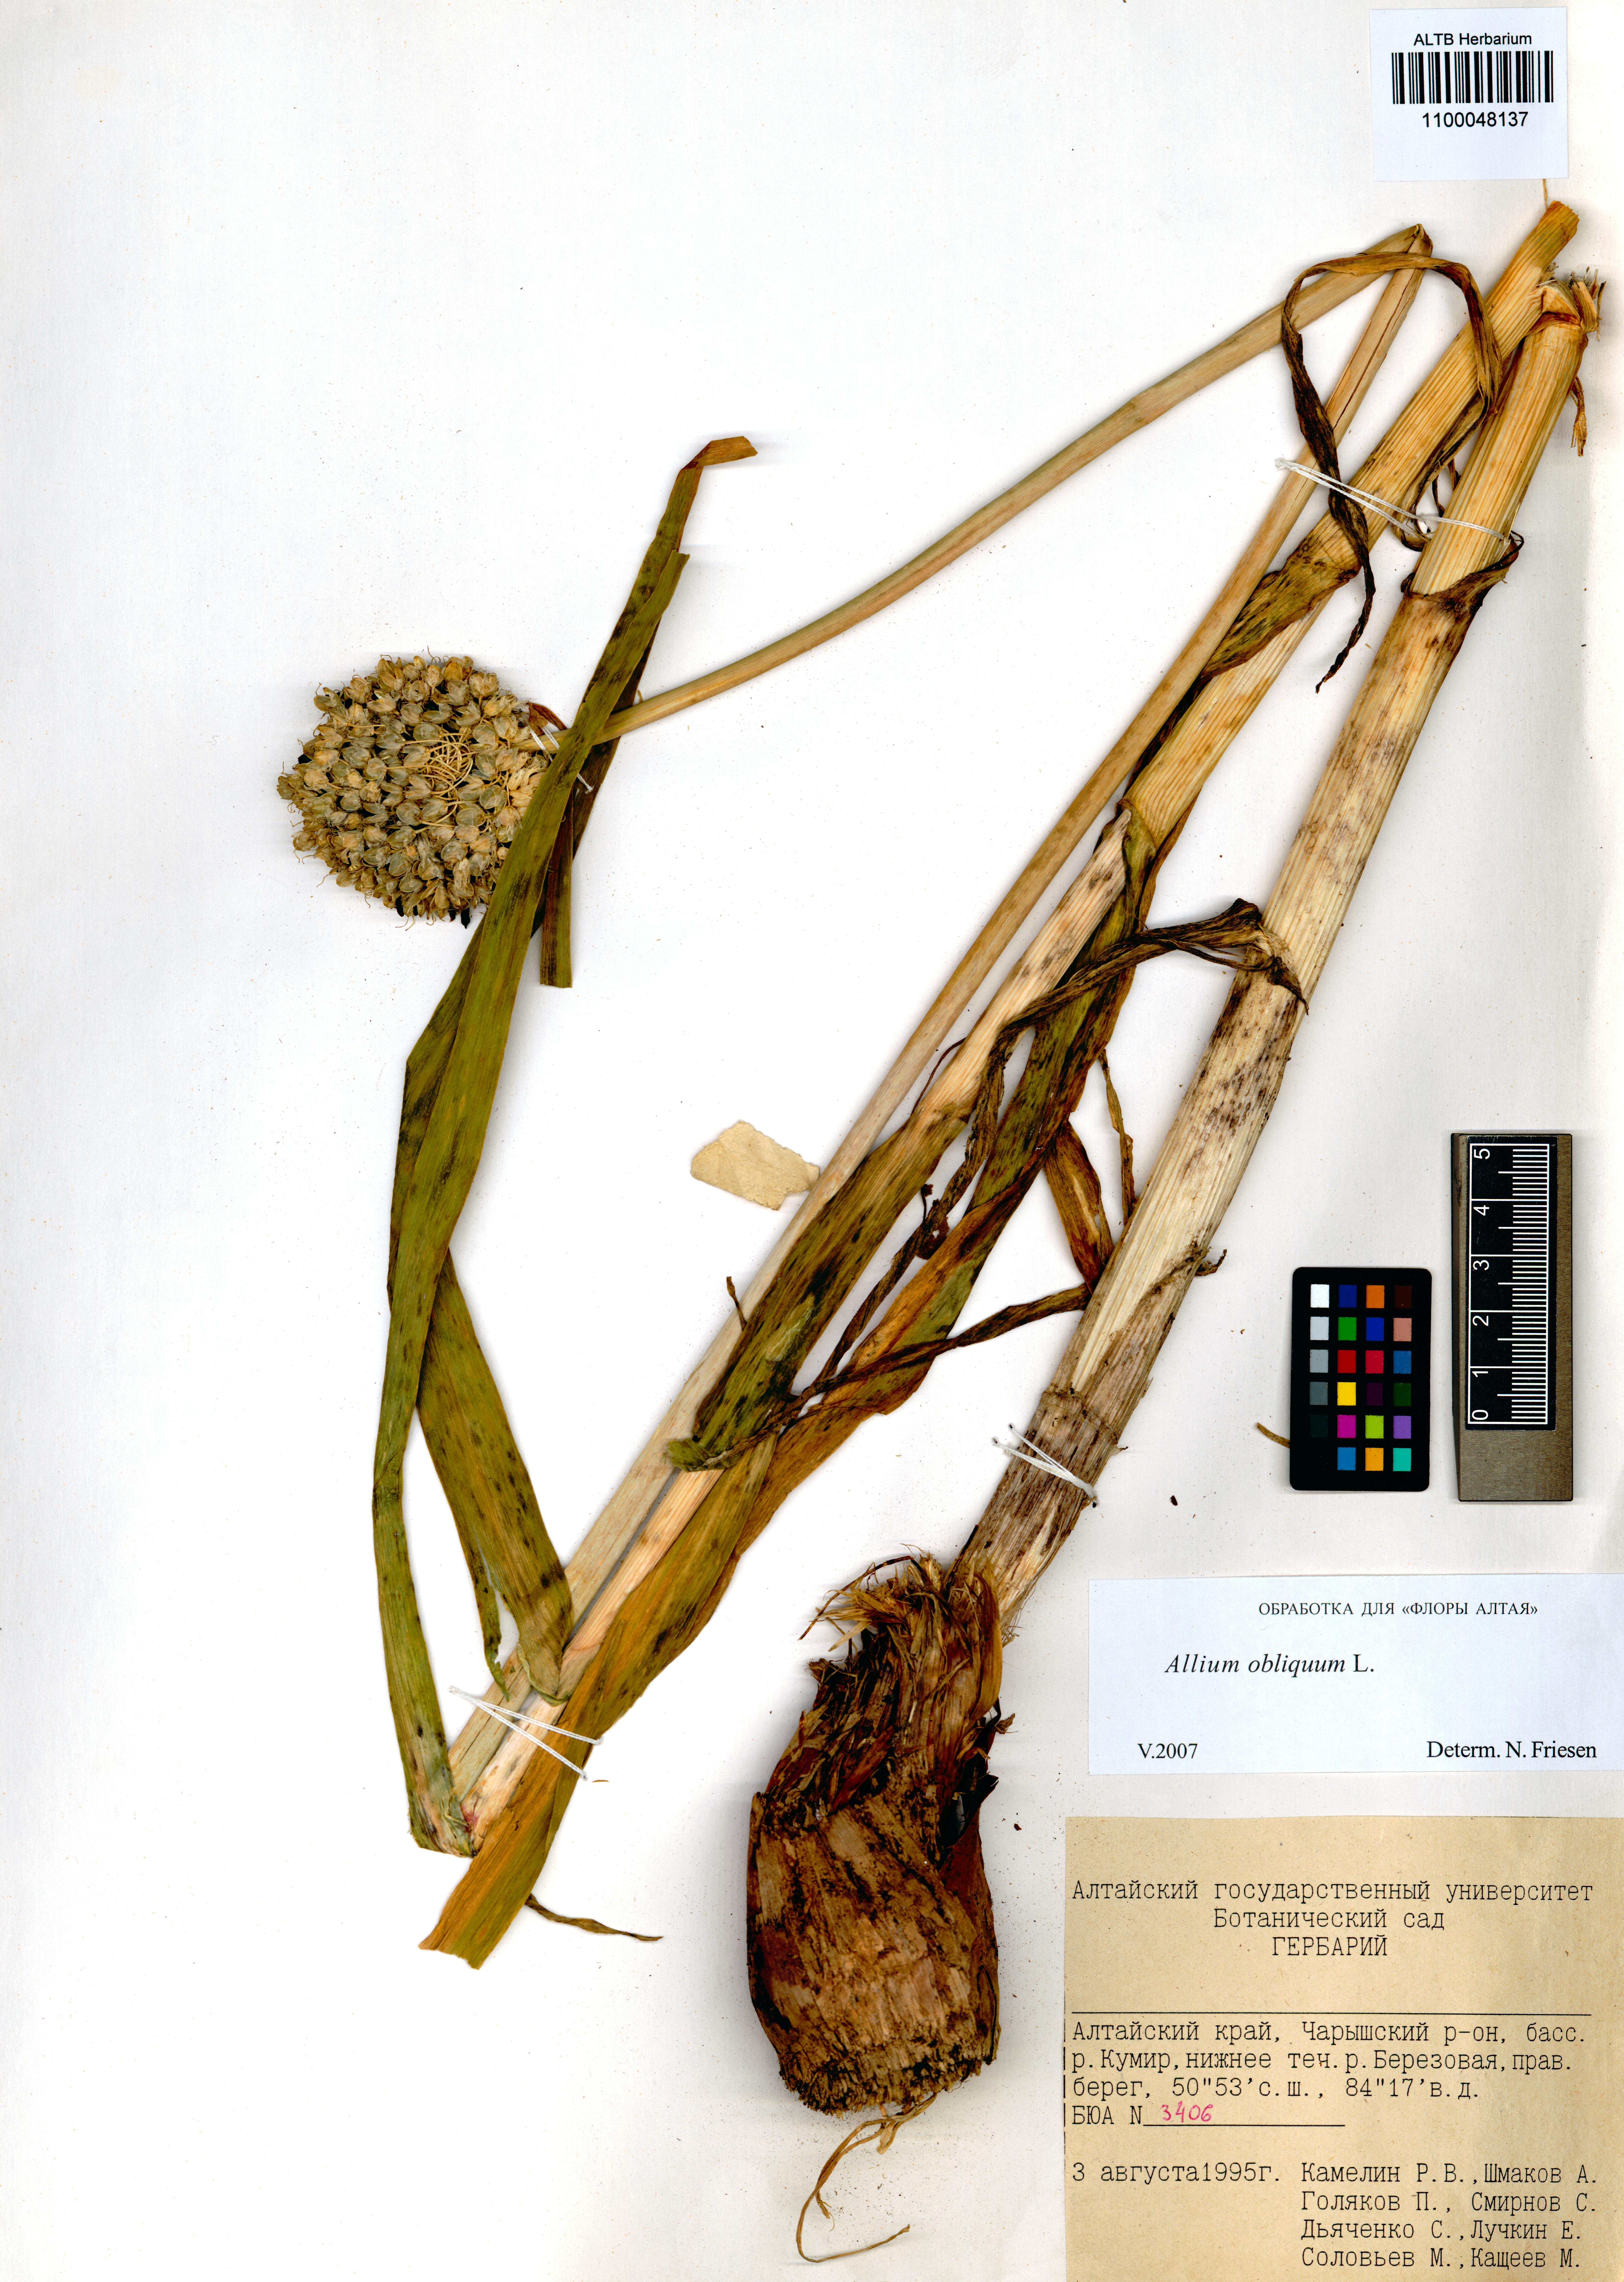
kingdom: Plantae
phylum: Tracheophyta
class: Liliopsida
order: Asparagales
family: Amaryllidaceae
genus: Allium
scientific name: Allium obliquum
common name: Oblique onion
